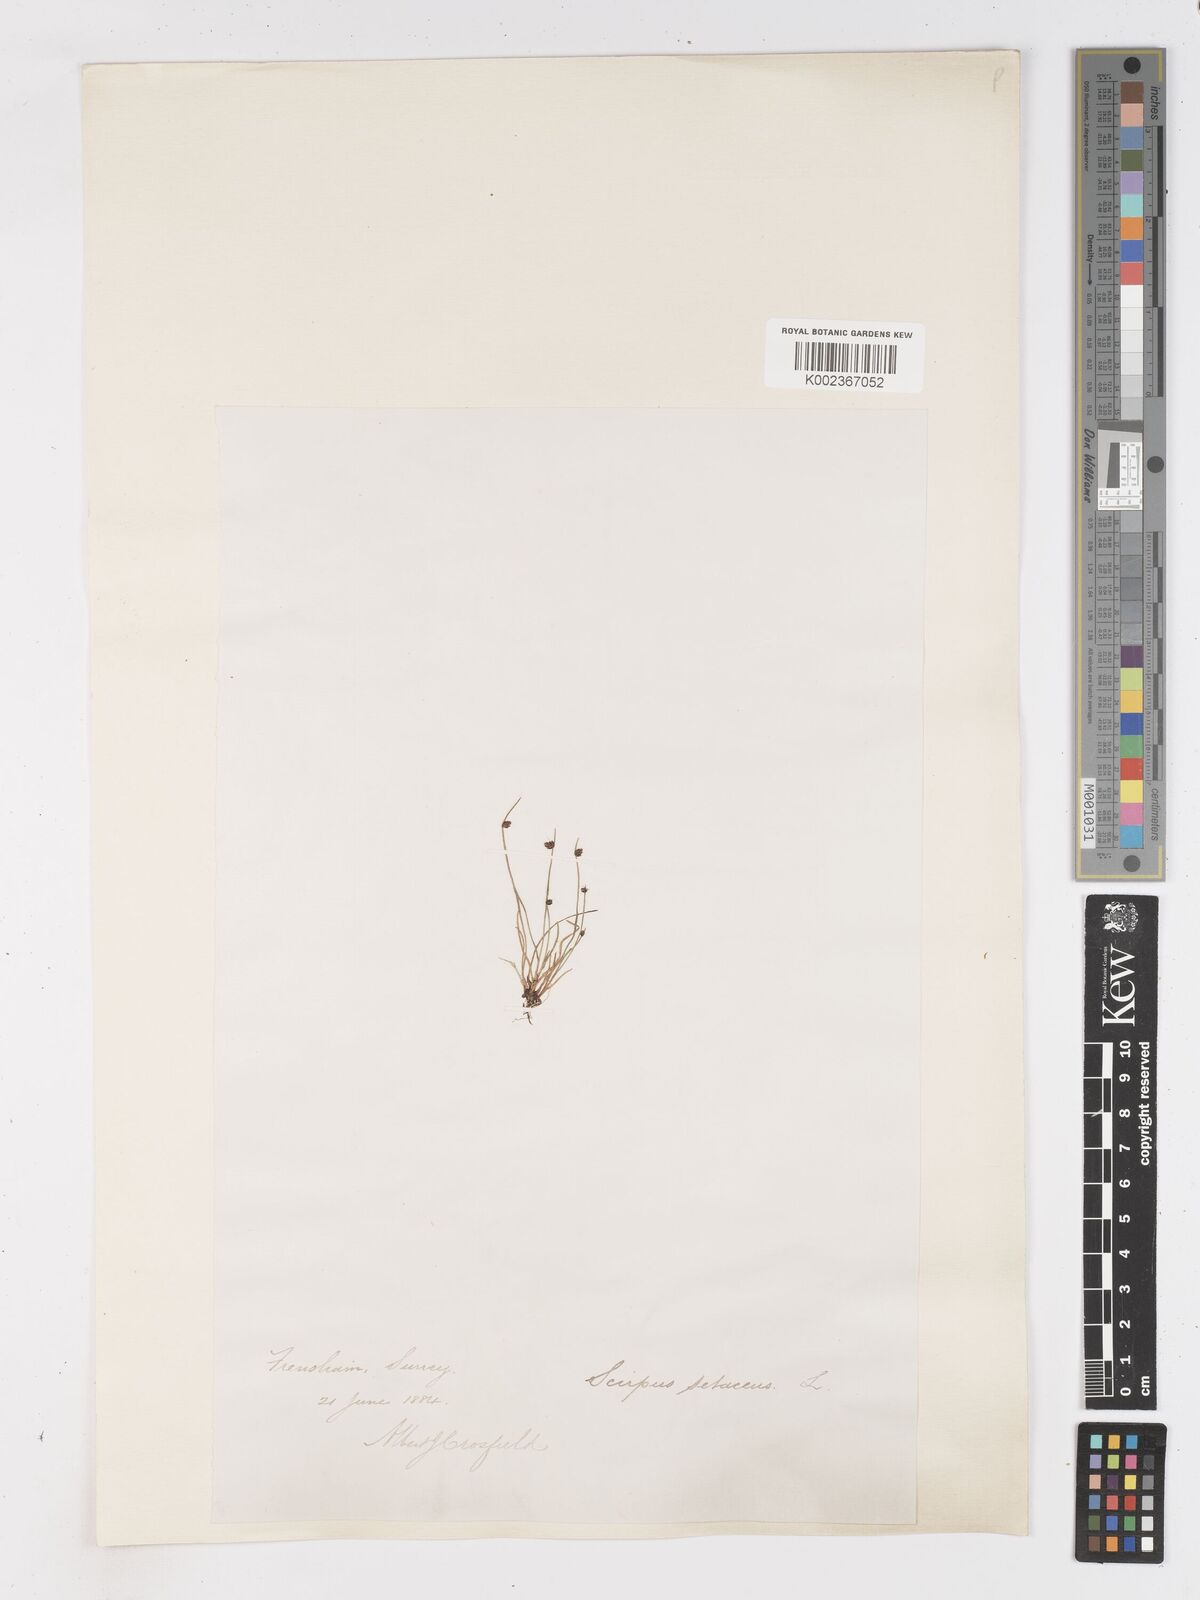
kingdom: Plantae
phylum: Tracheophyta
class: Liliopsida
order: Poales
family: Cyperaceae
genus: Isolepis
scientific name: Isolepis setacea
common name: Bristle club-rush
